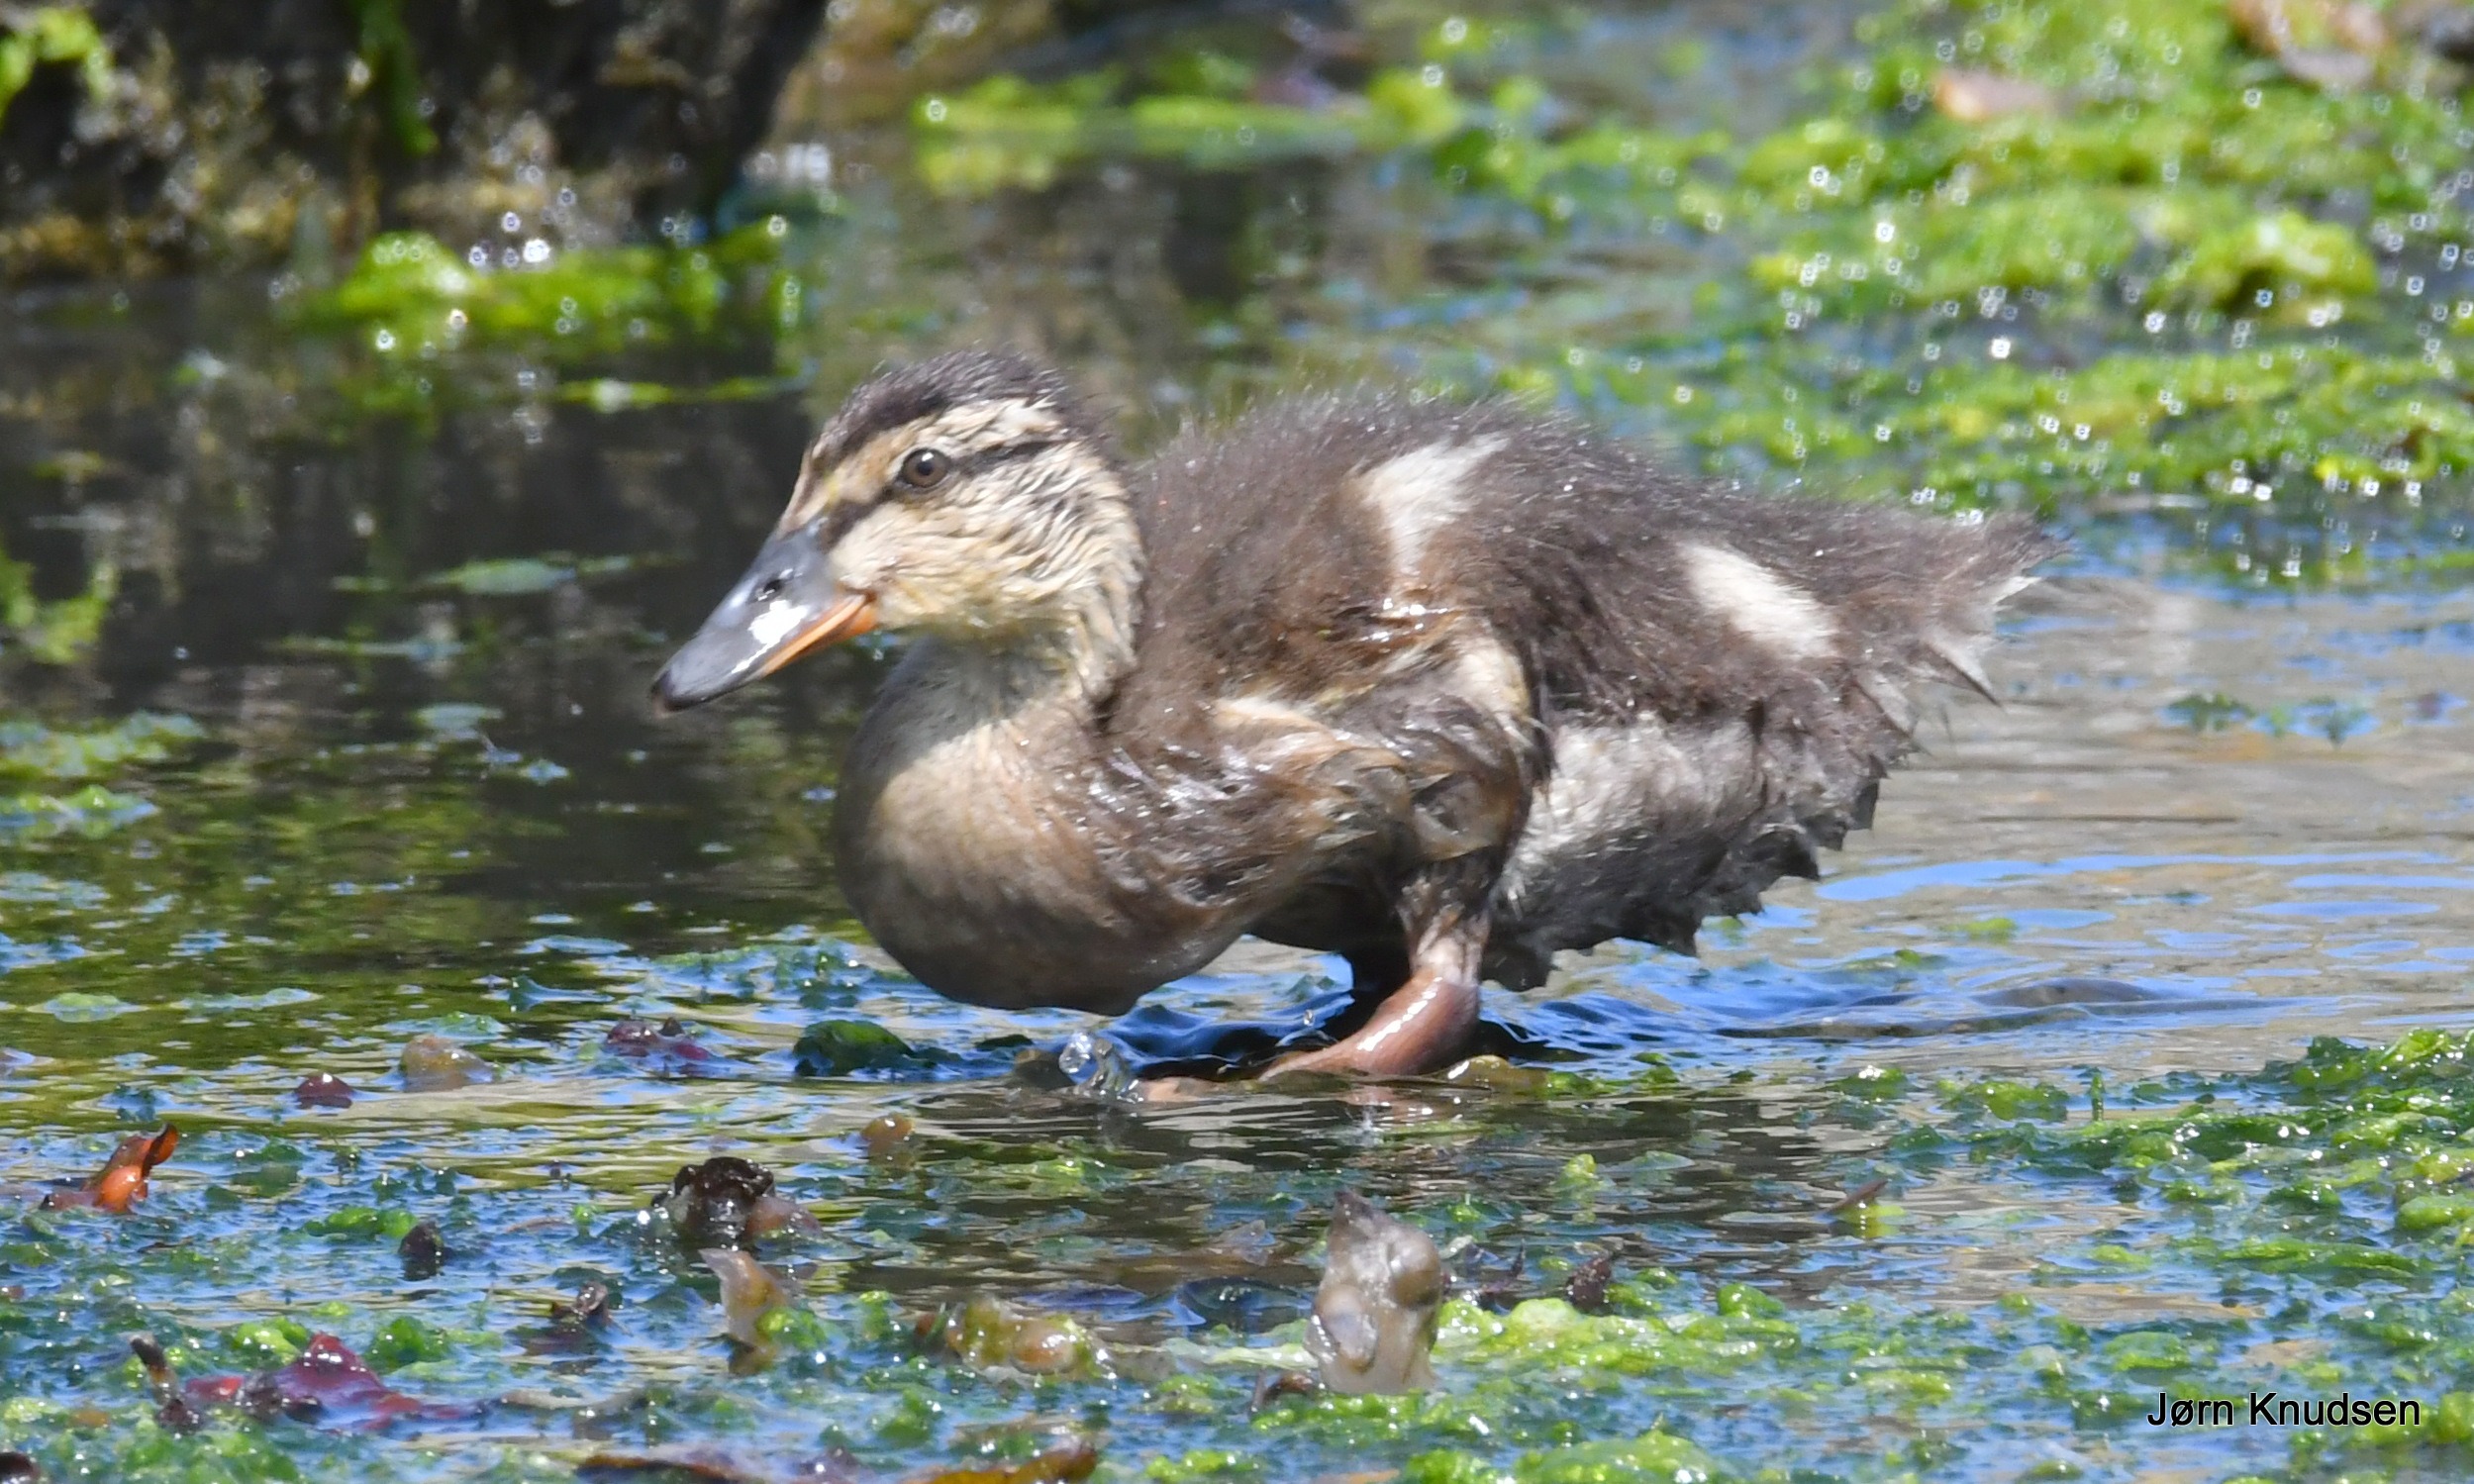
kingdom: Animalia
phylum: Chordata
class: Aves
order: Anseriformes
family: Anatidae
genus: Anas
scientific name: Anas platyrhynchos
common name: Gråand
